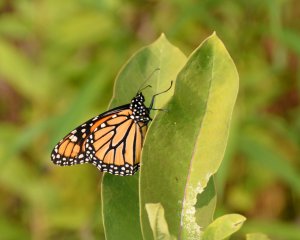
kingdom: Animalia
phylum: Arthropoda
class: Insecta
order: Lepidoptera
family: Nymphalidae
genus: Danaus
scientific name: Danaus plexippus
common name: Monarch
